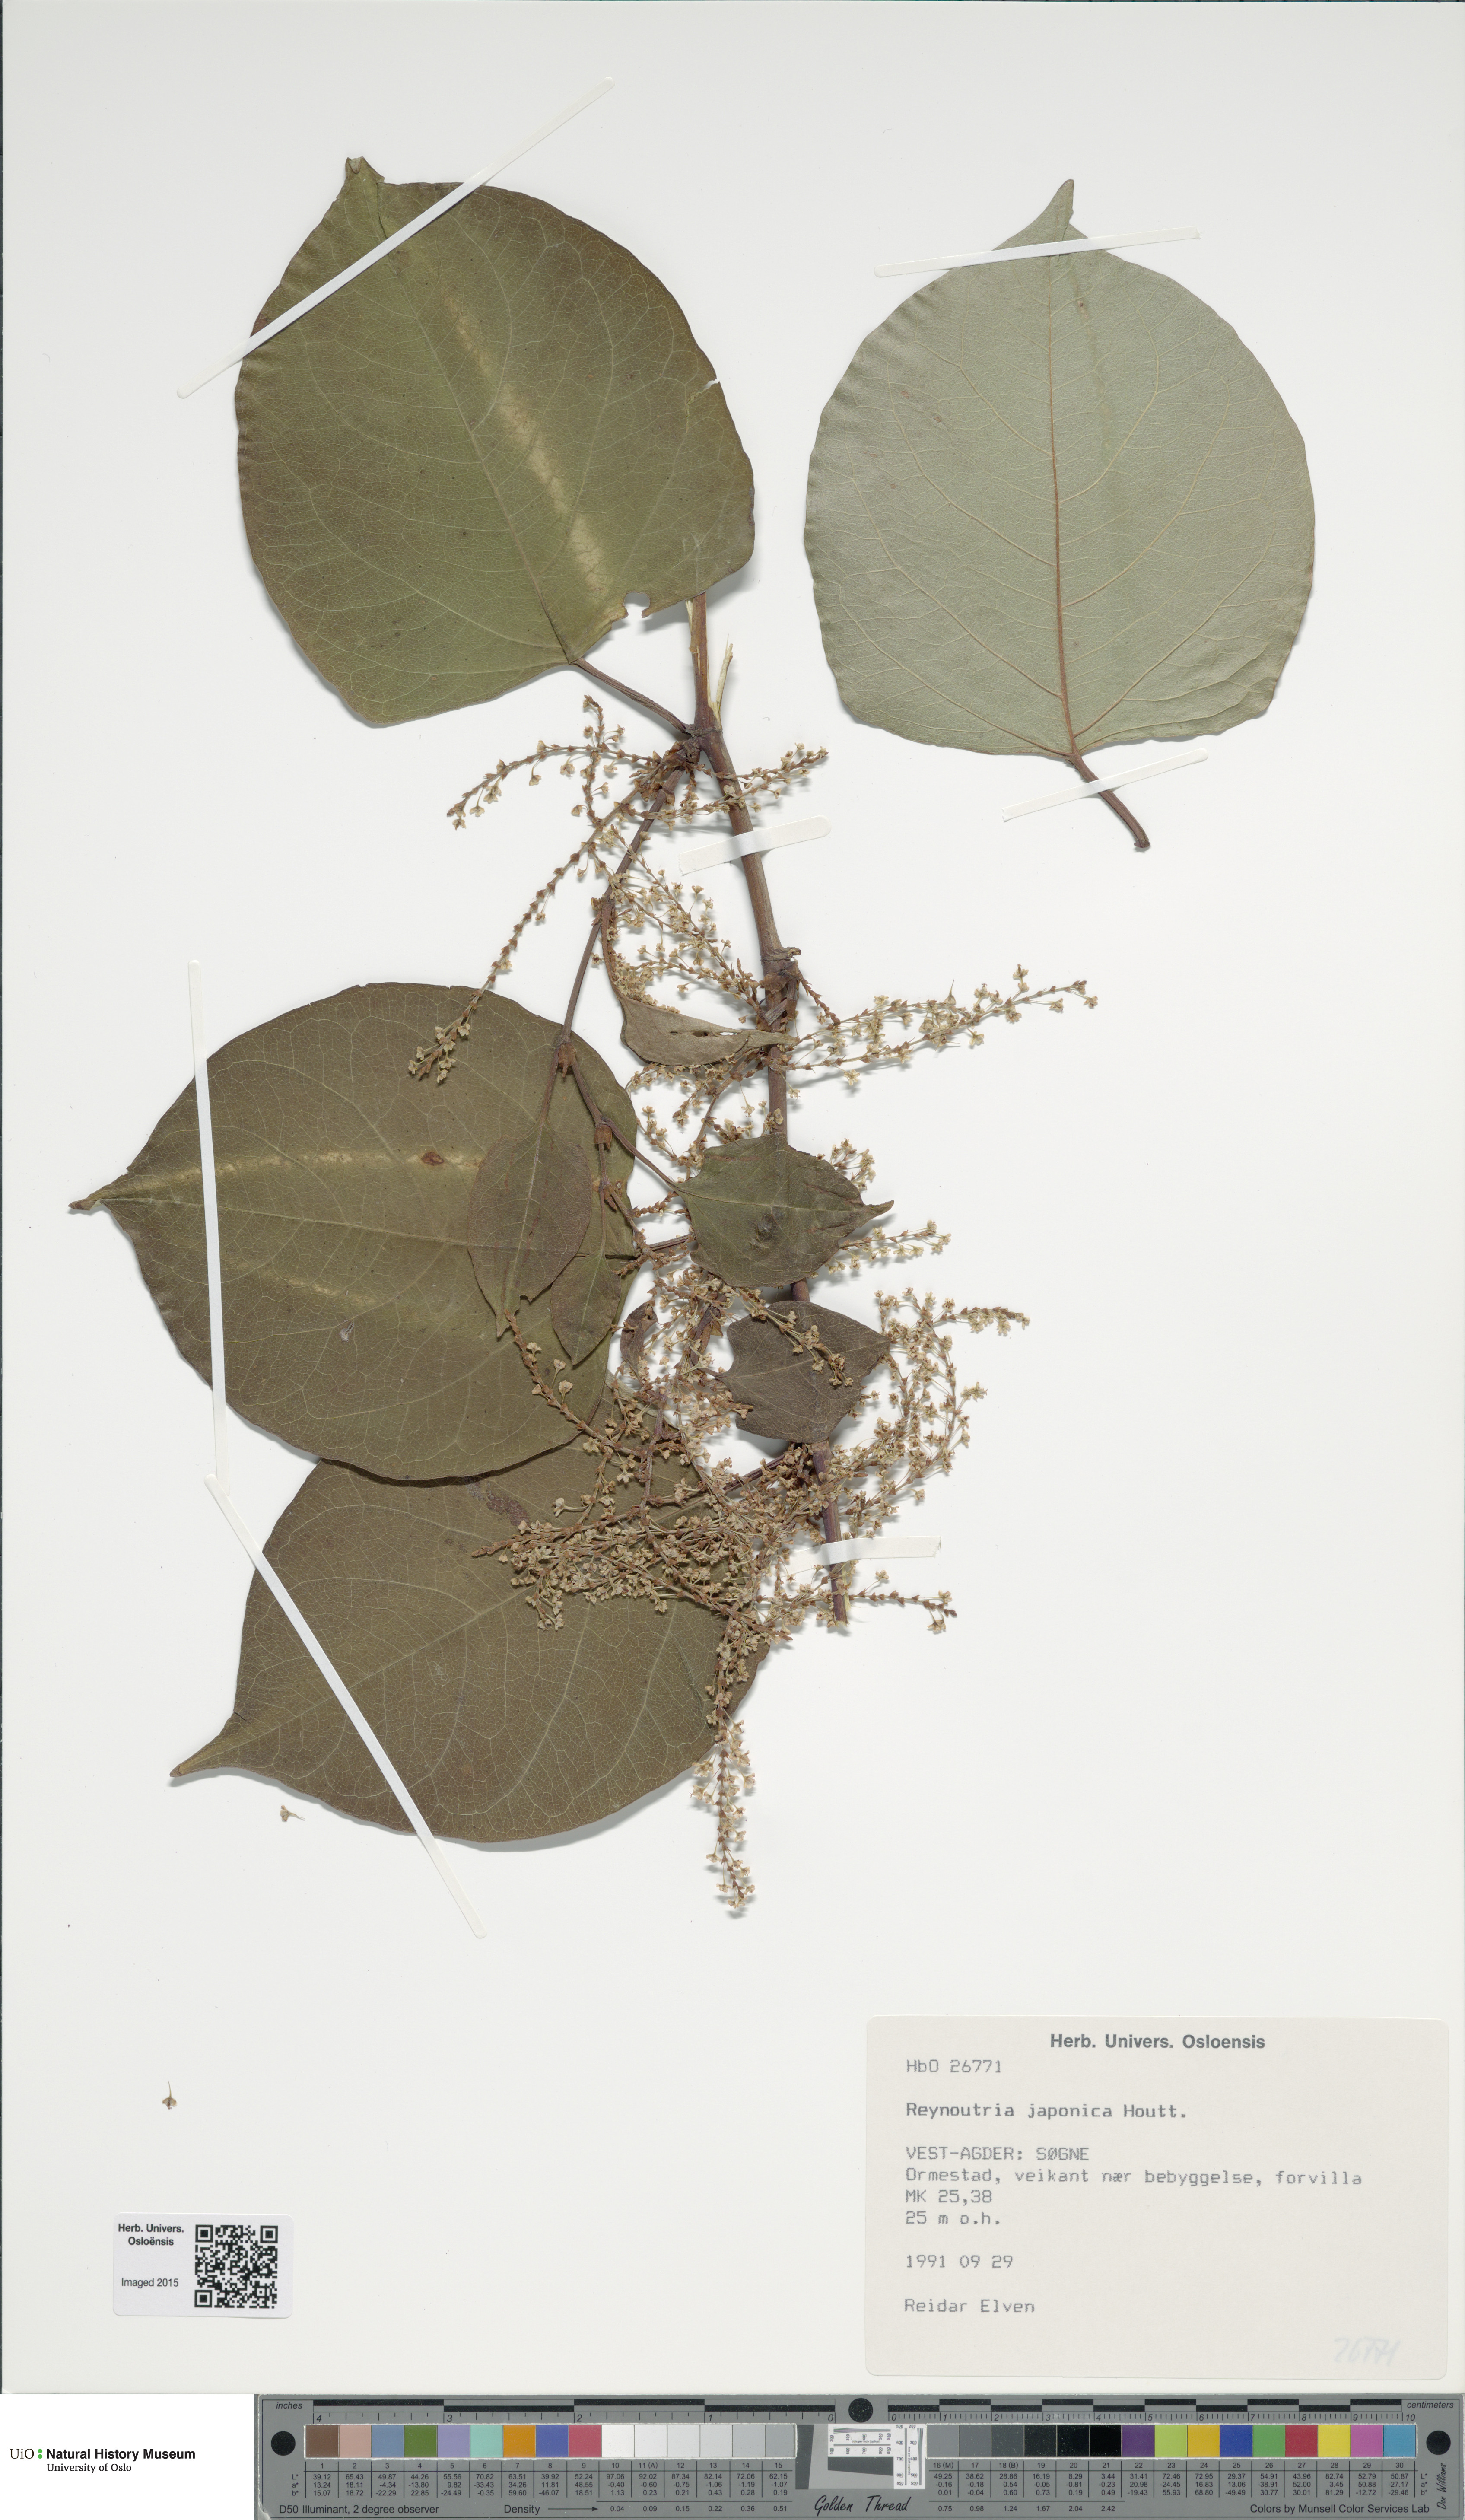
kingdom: Plantae
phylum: Tracheophyta
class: Magnoliopsida
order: Caryophyllales
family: Polygonaceae
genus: Reynoutria
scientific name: Reynoutria japonica
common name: Japanese knotweed
